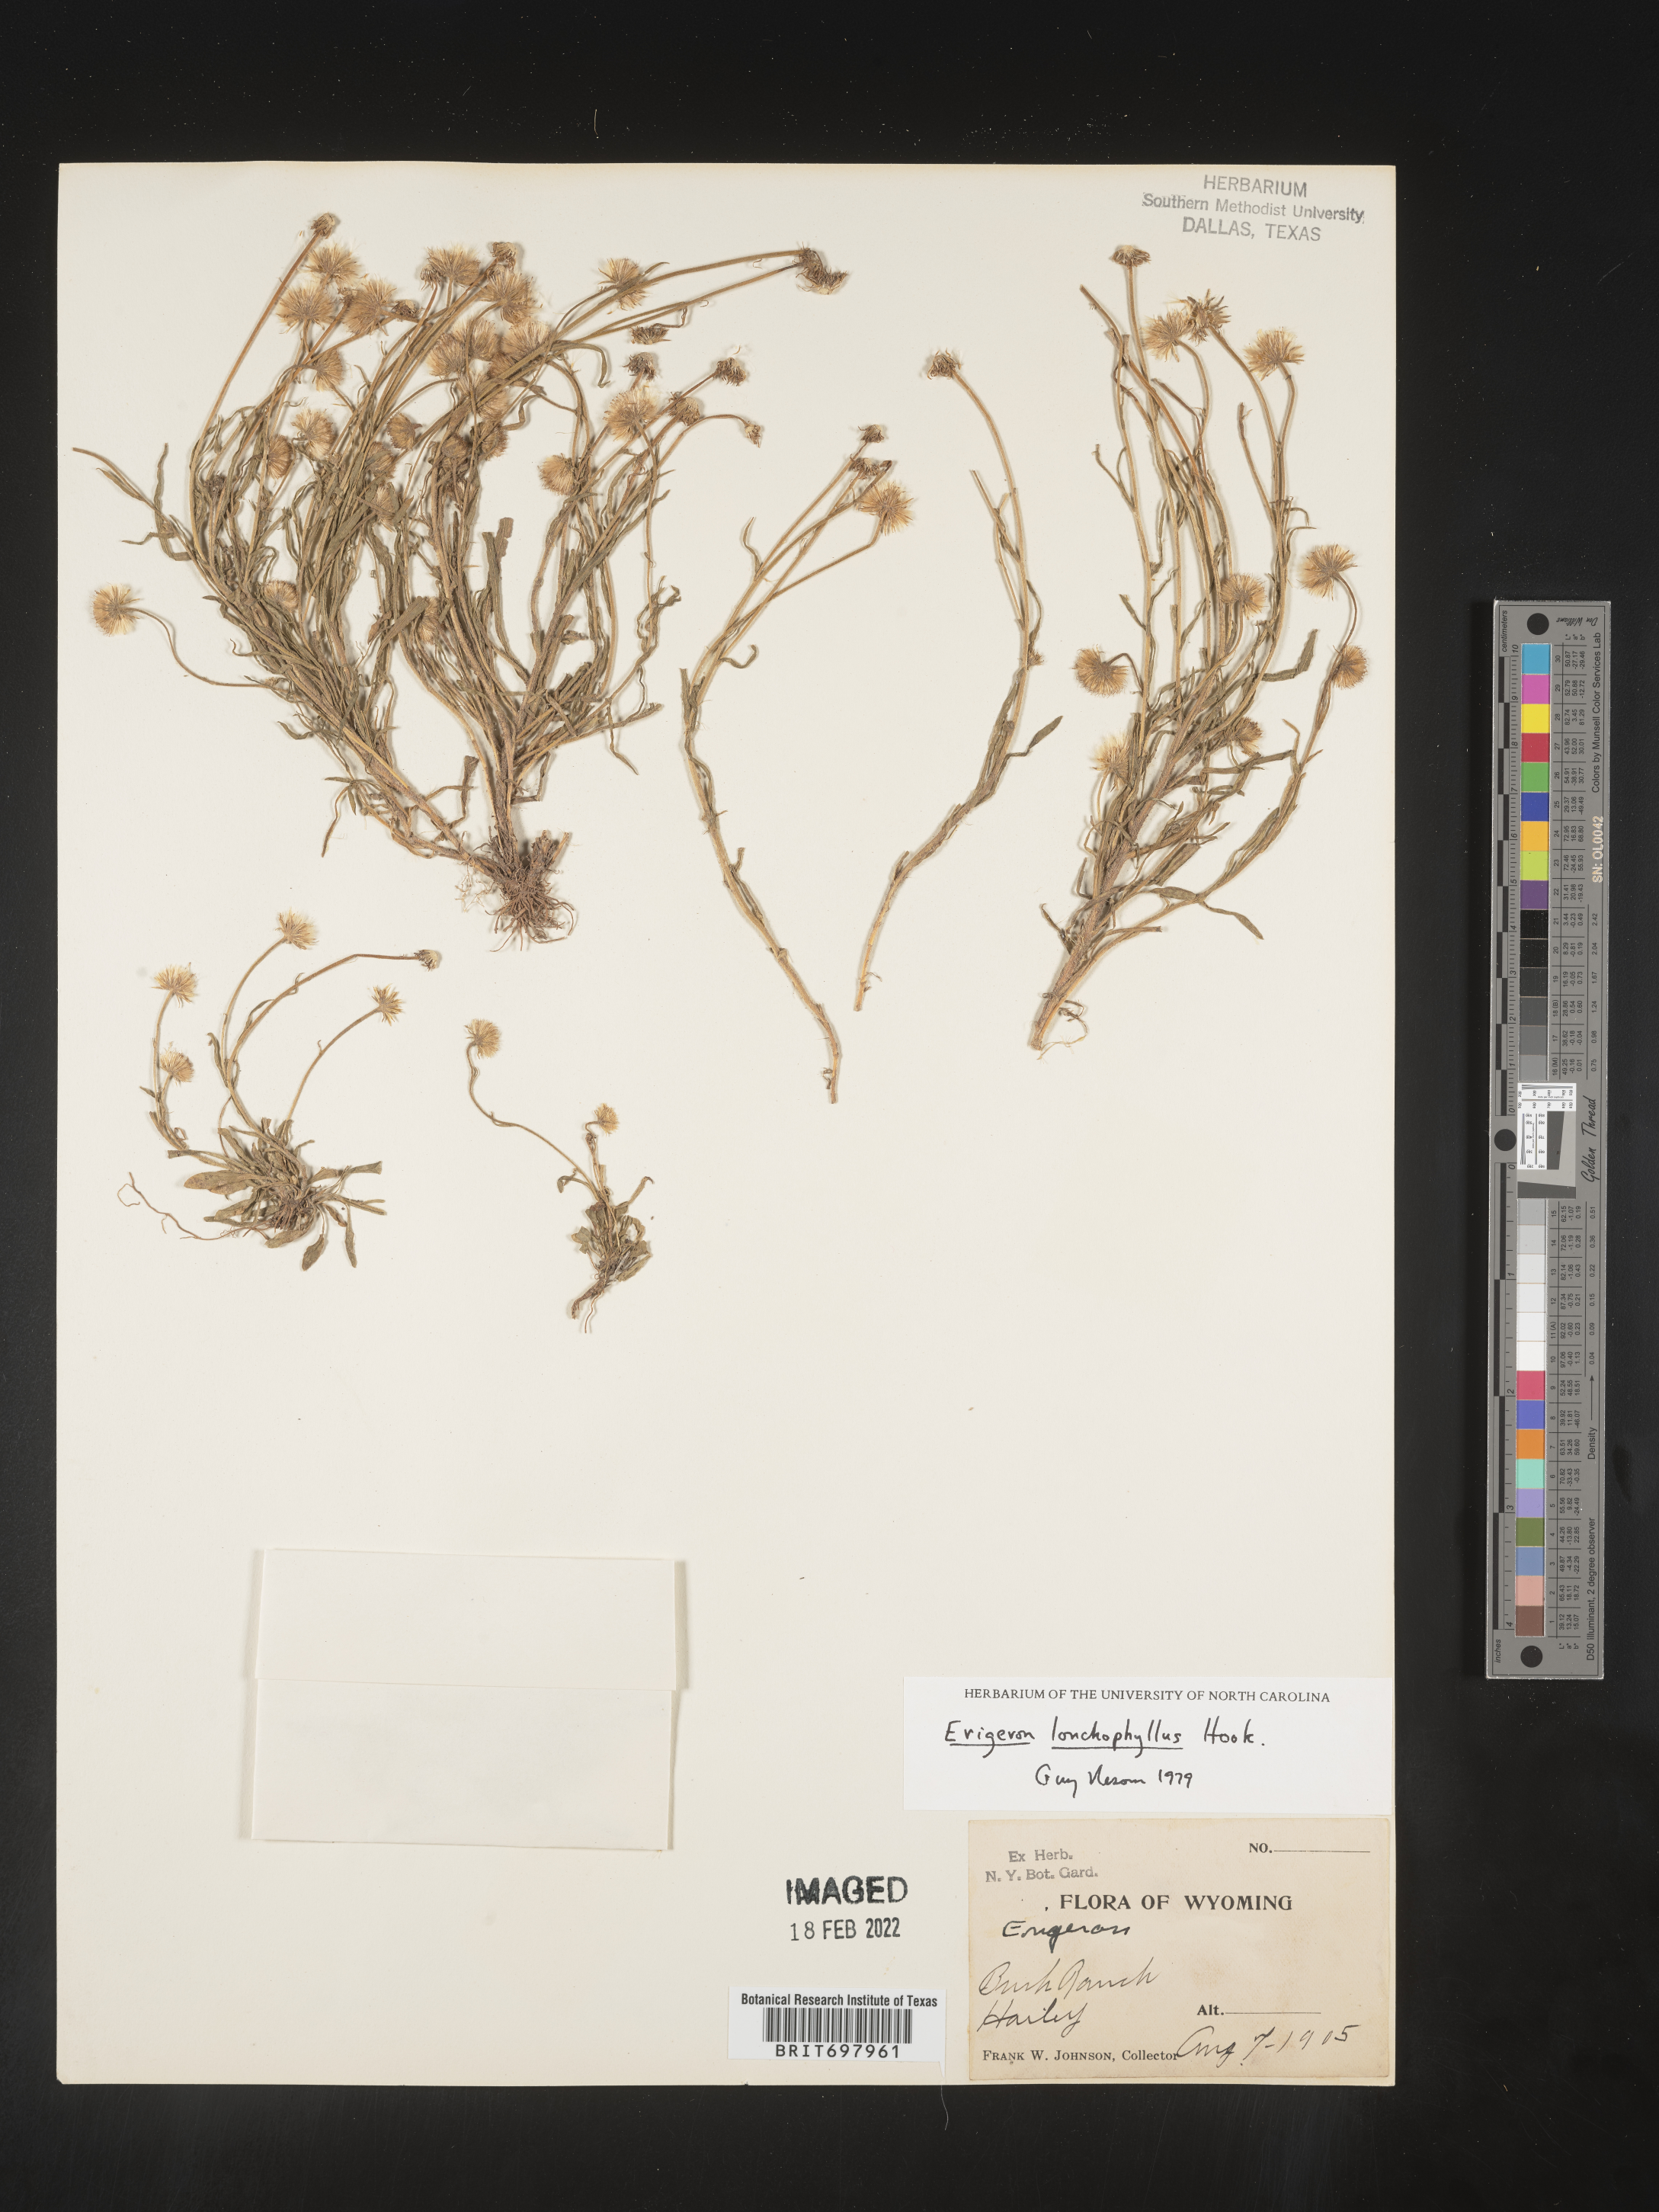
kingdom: Plantae
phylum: Tracheophyta
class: Magnoliopsida
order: Asterales
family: Asteraceae
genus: Erigeron
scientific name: Erigeron lonchophyllus
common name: Short-ray fleabane
